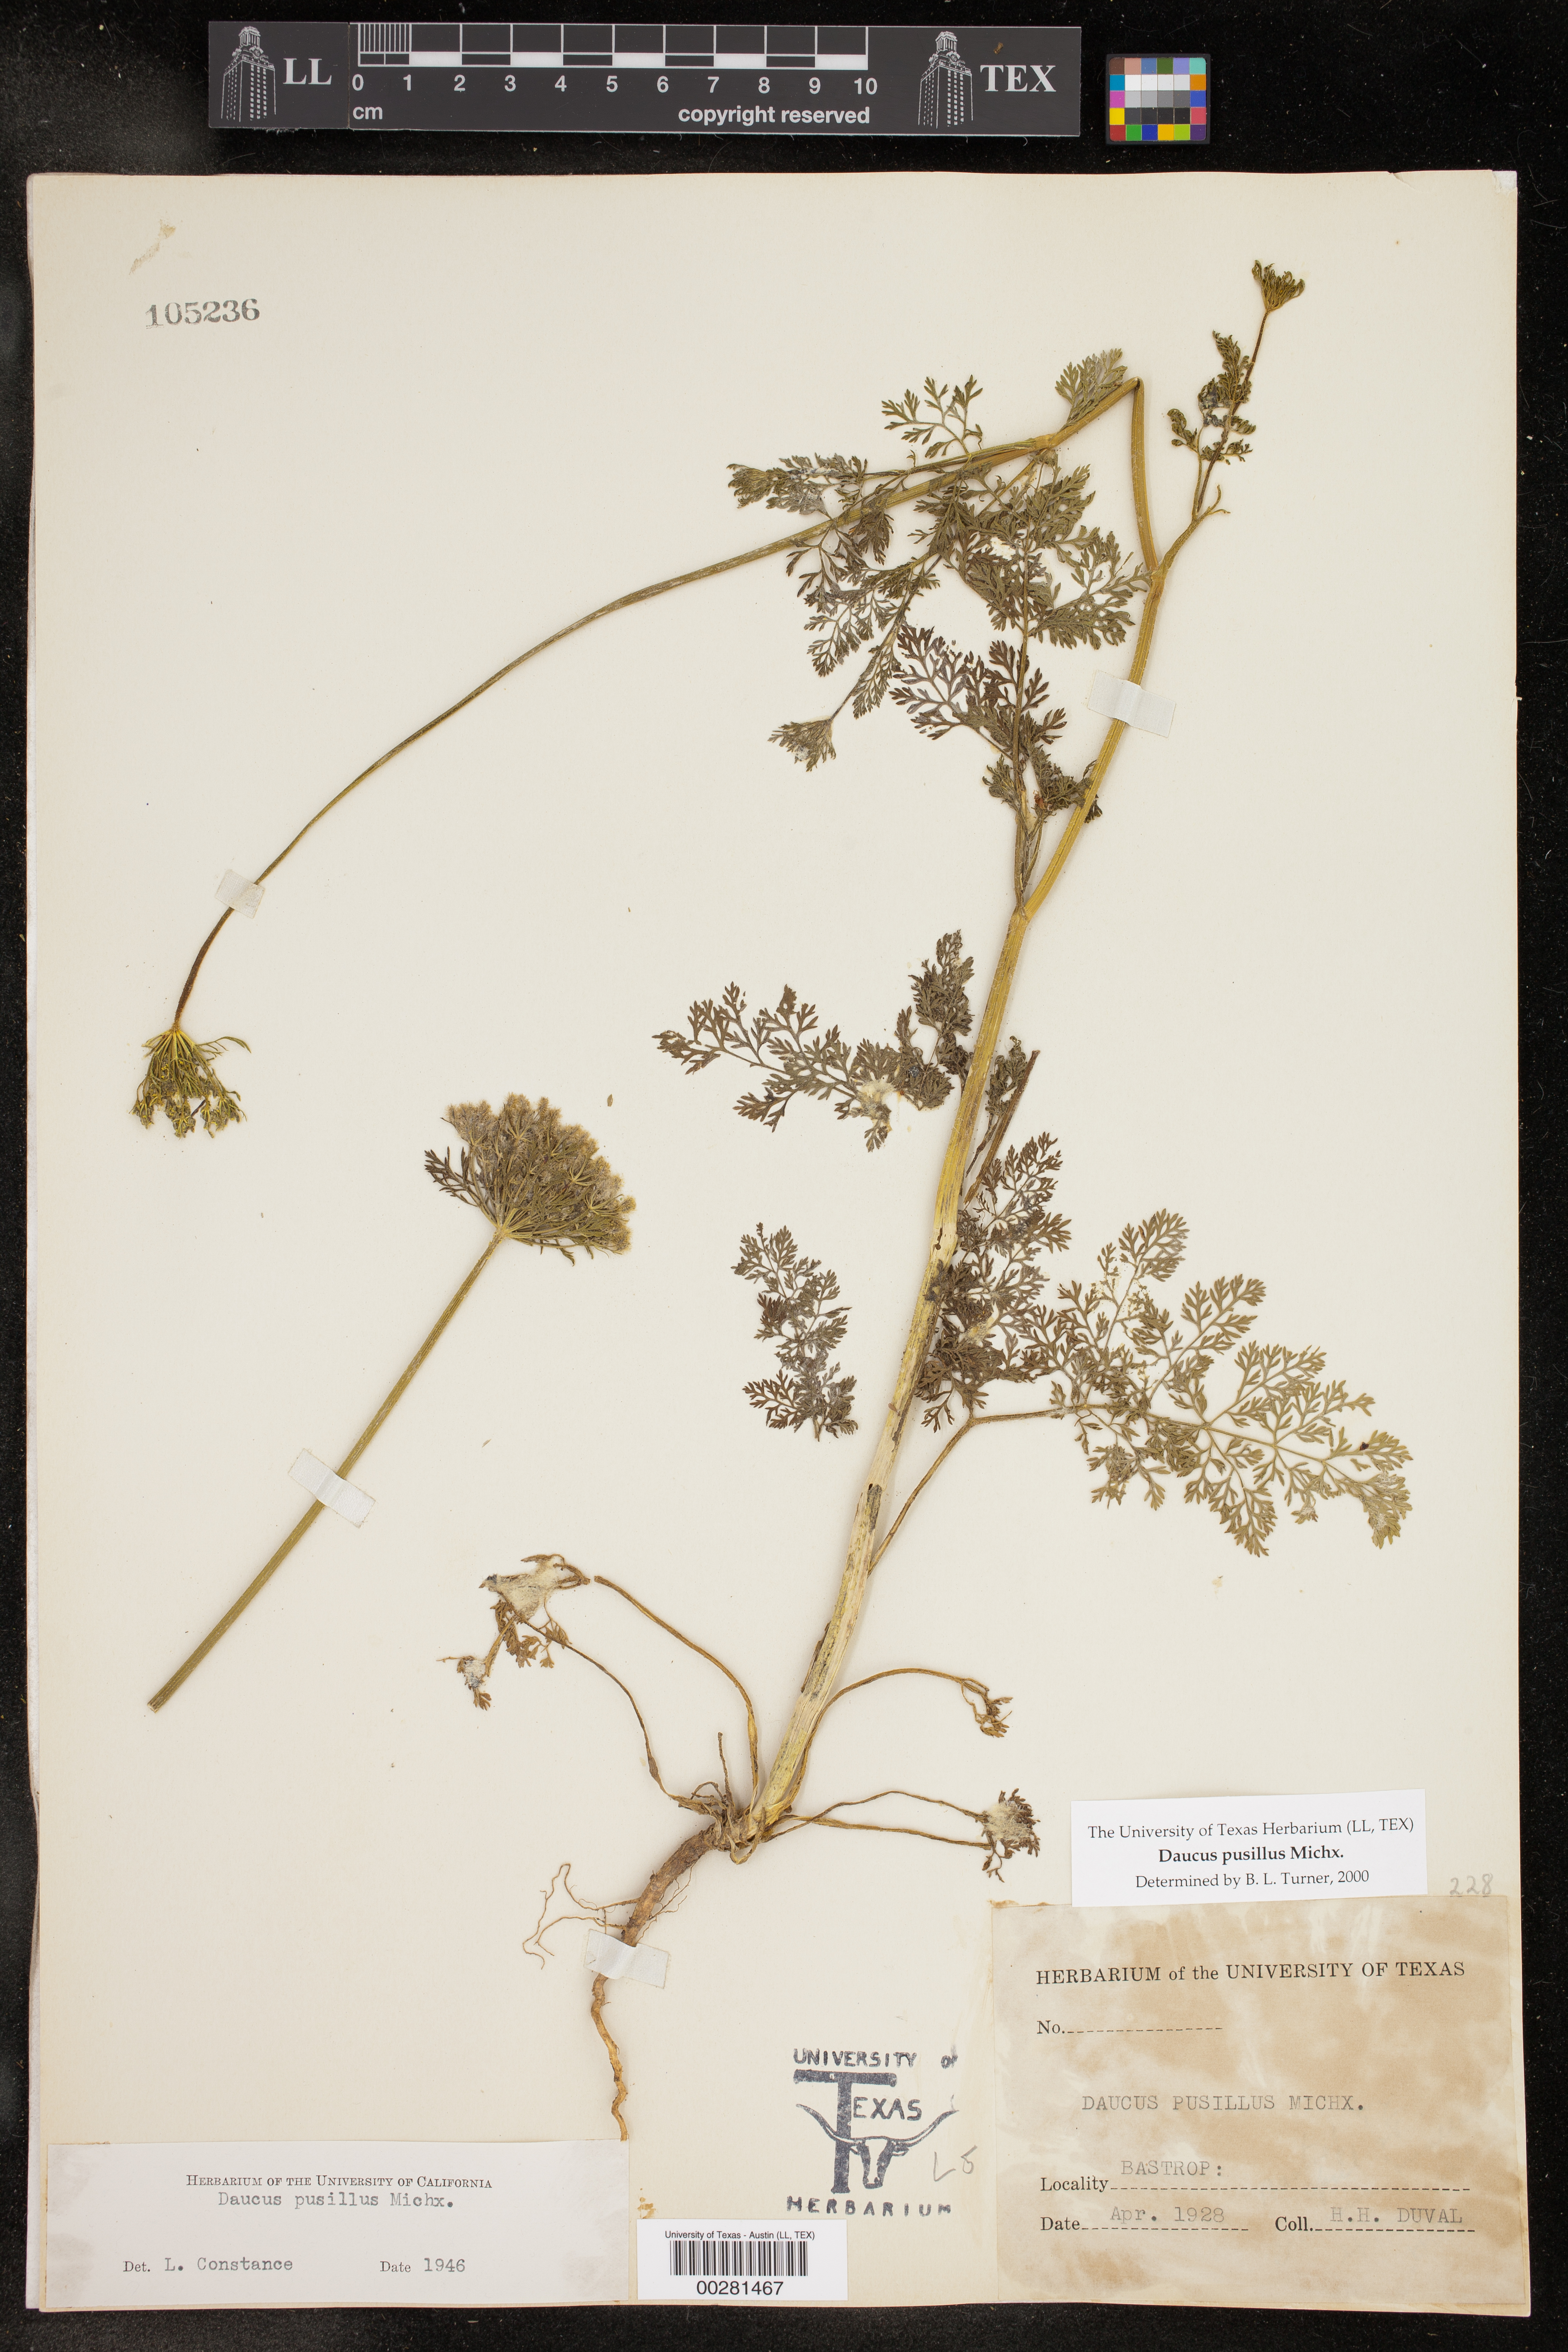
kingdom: Plantae
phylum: Tracheophyta
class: Magnoliopsida
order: Apiales
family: Apiaceae
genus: Daucus
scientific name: Daucus pusillus
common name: Southwest wild carrot
